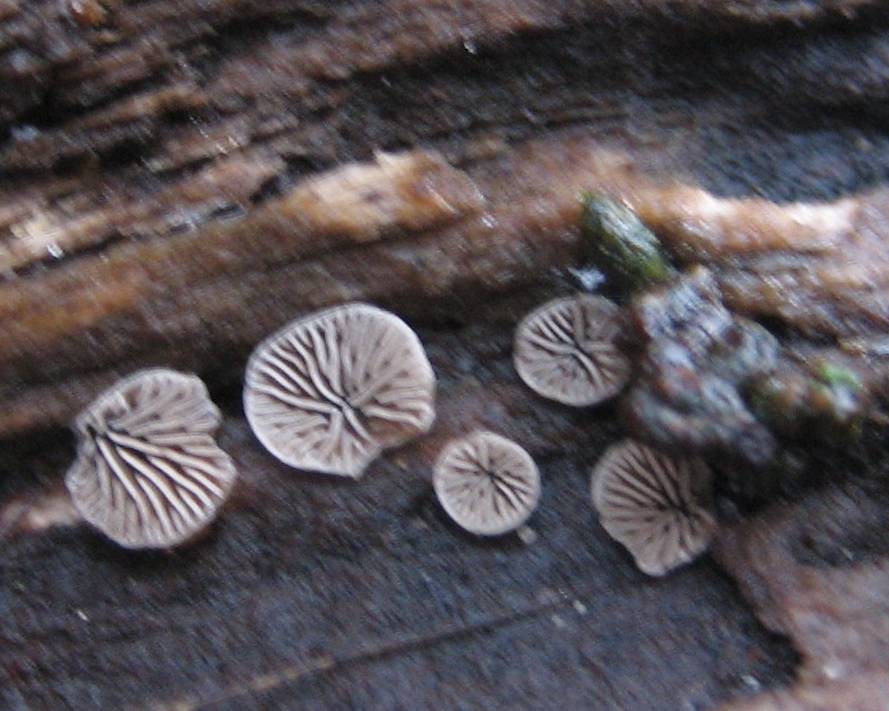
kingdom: Fungi
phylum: Basidiomycota
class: Agaricomycetes
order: Agaricales
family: Pleurotaceae
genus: Resupinatus
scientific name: Resupinatus applicatus
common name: lysfiltet barkhat
